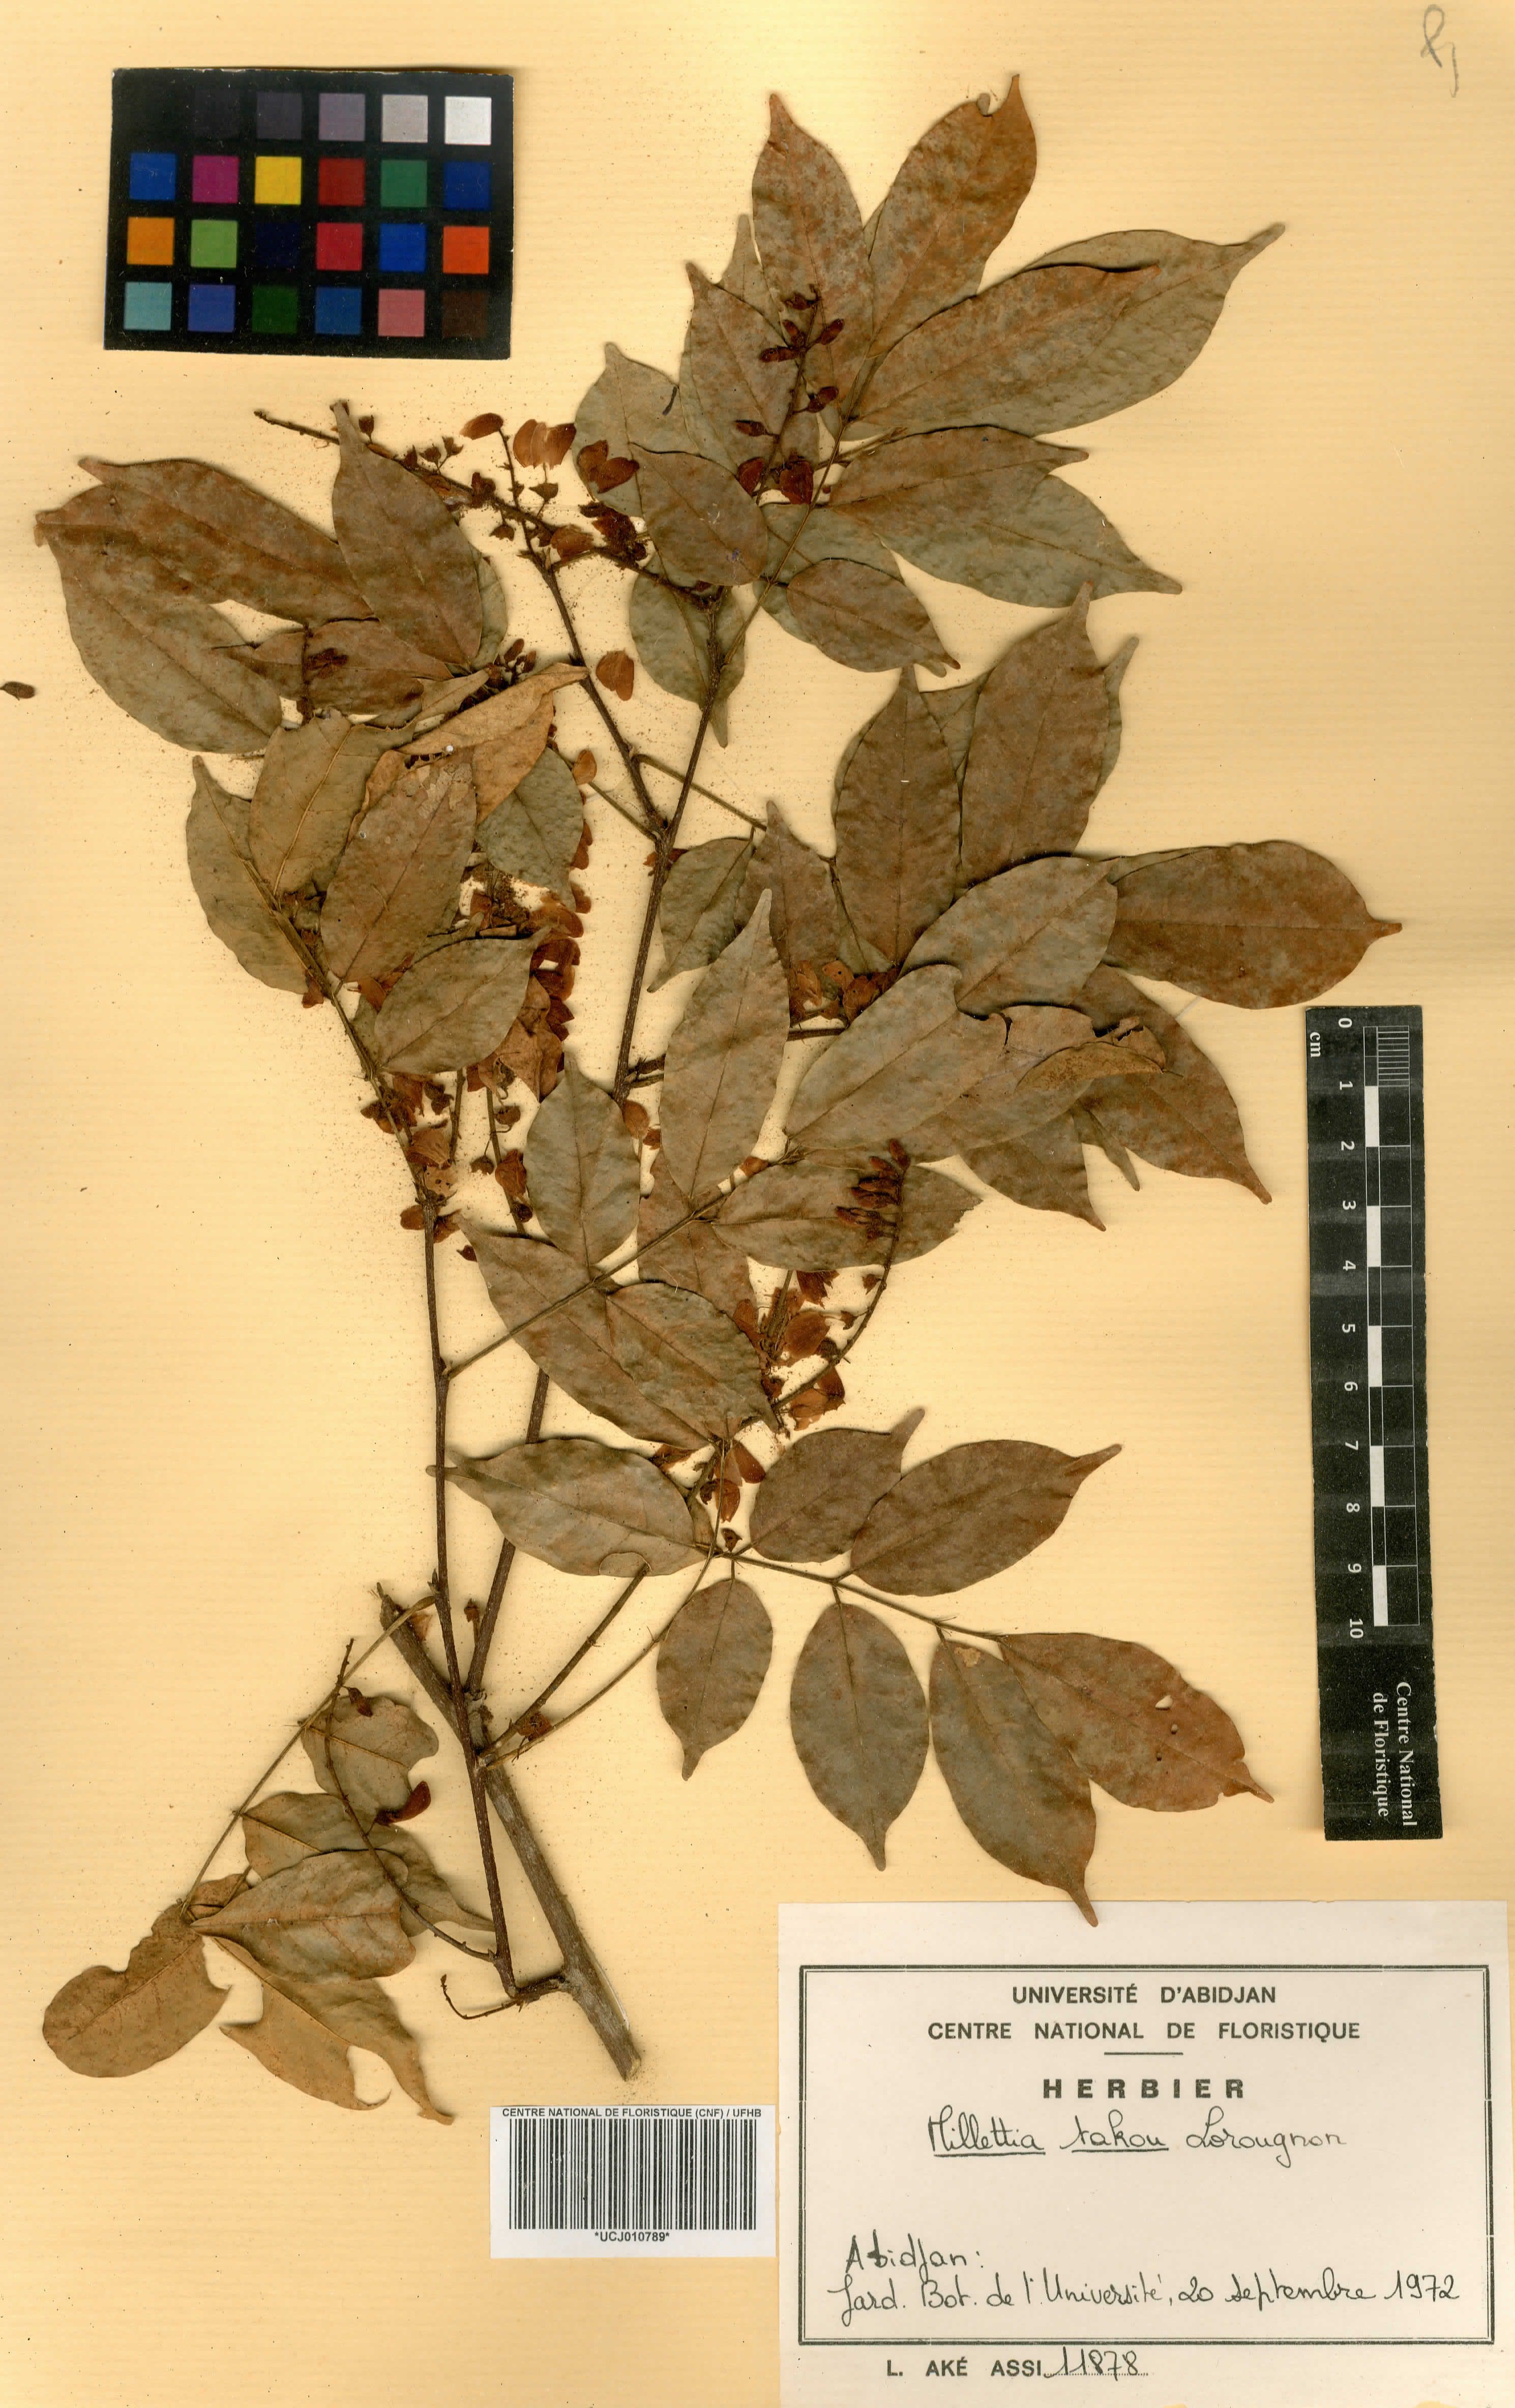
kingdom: Plantae
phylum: Tracheophyta
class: Magnoliopsida
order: Fabales
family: Fabaceae
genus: Millettia
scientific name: Millettia takou
